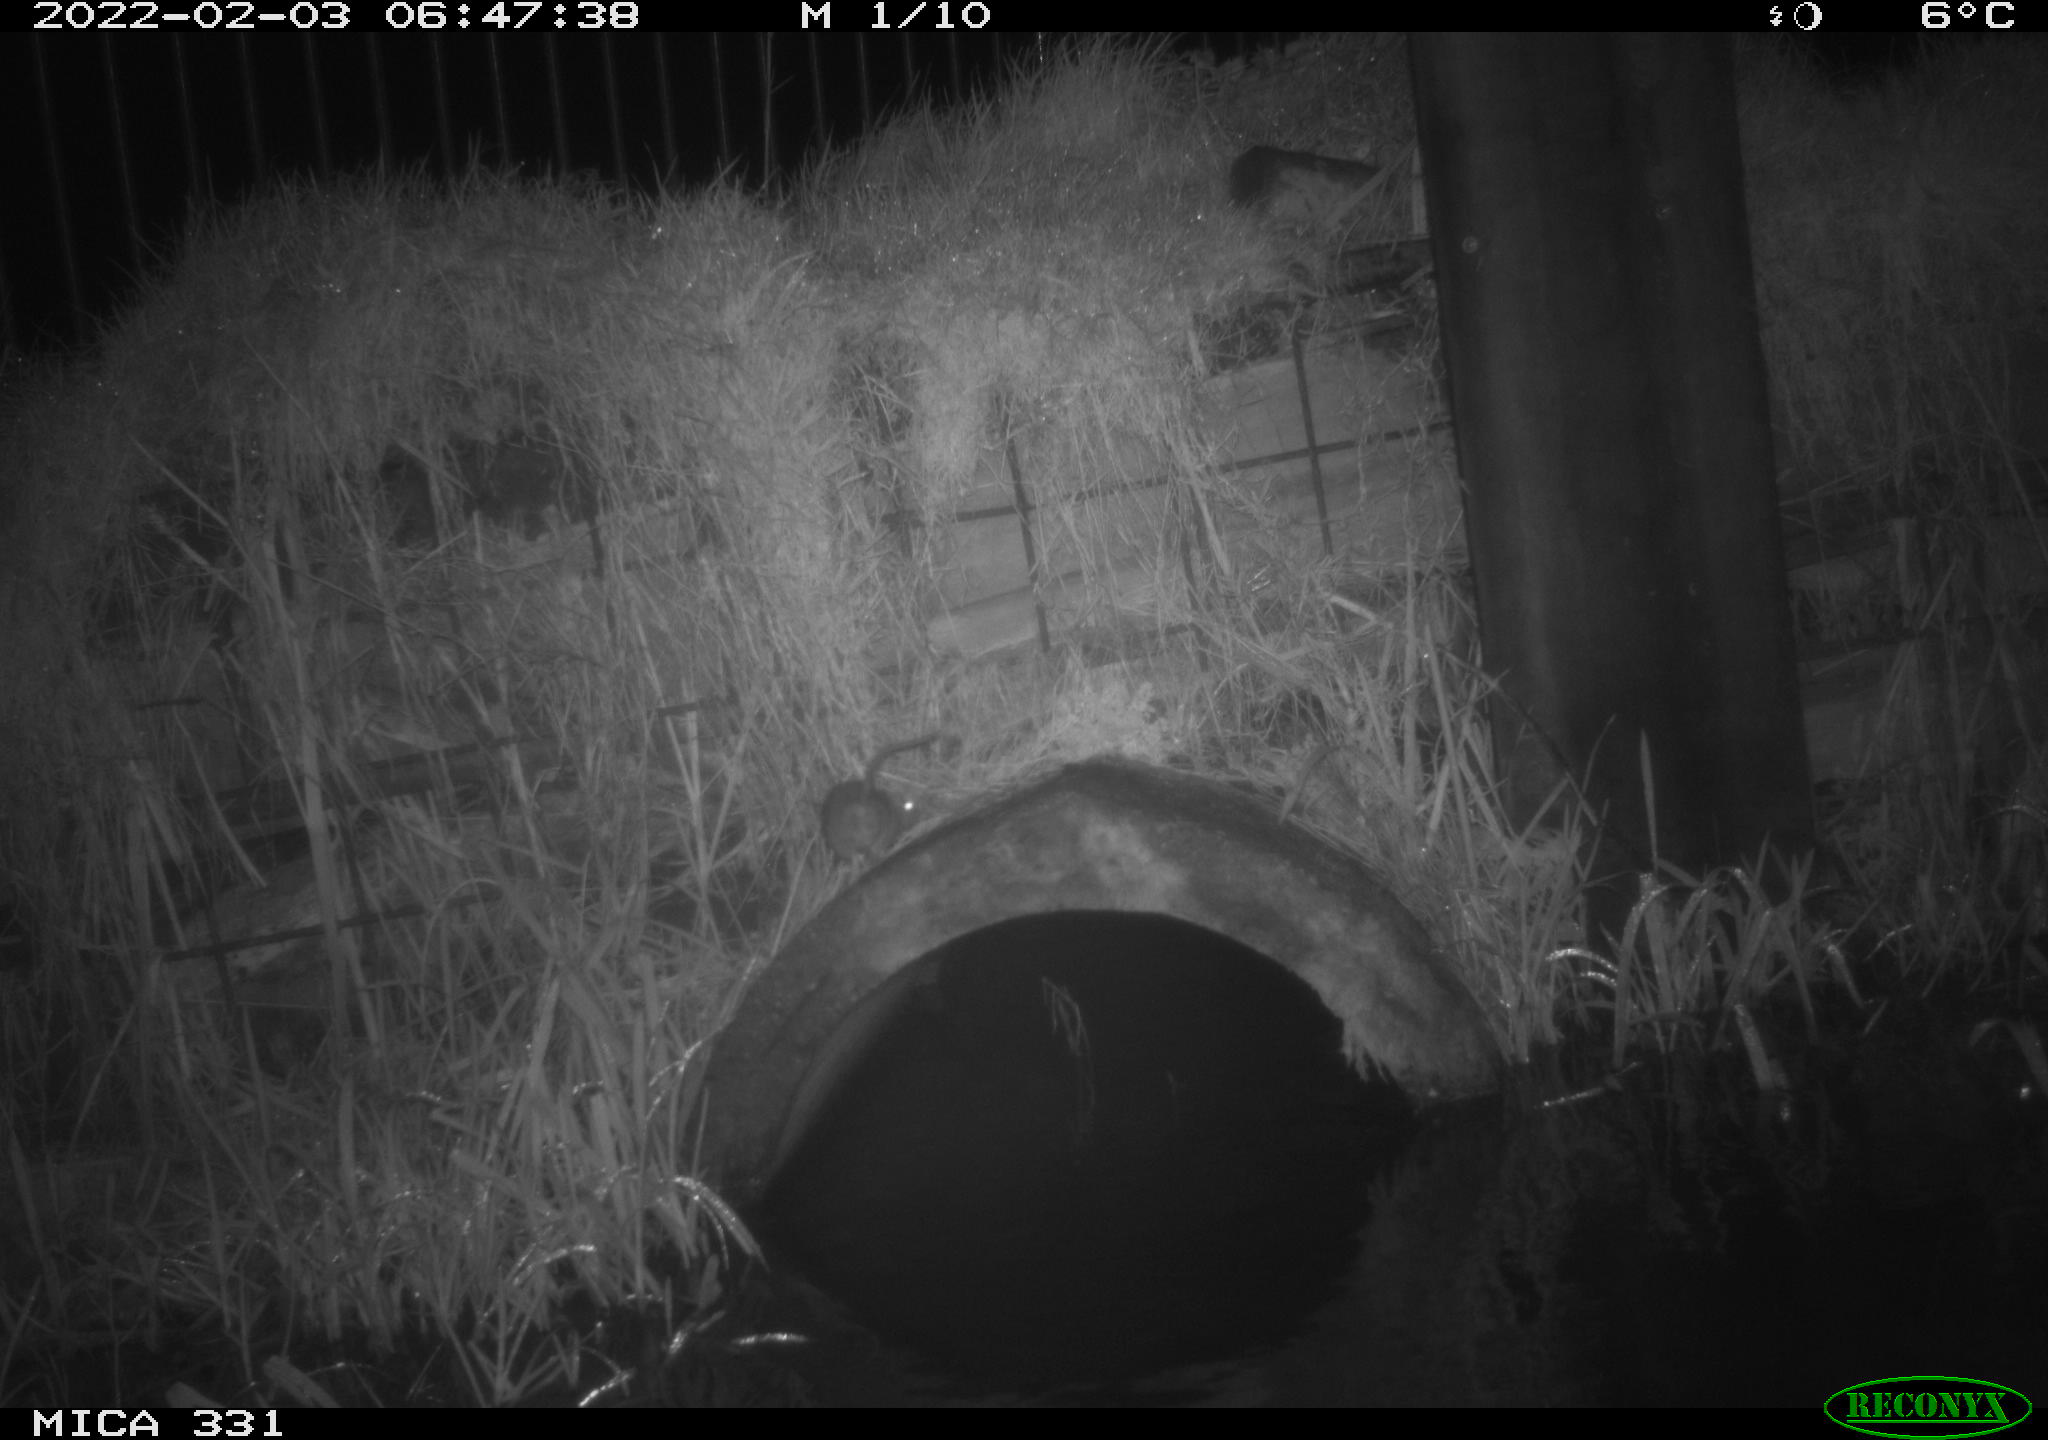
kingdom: Animalia
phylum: Chordata
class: Mammalia
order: Rodentia
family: Muridae
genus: Rattus
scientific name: Rattus norvegicus
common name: Brown rat
